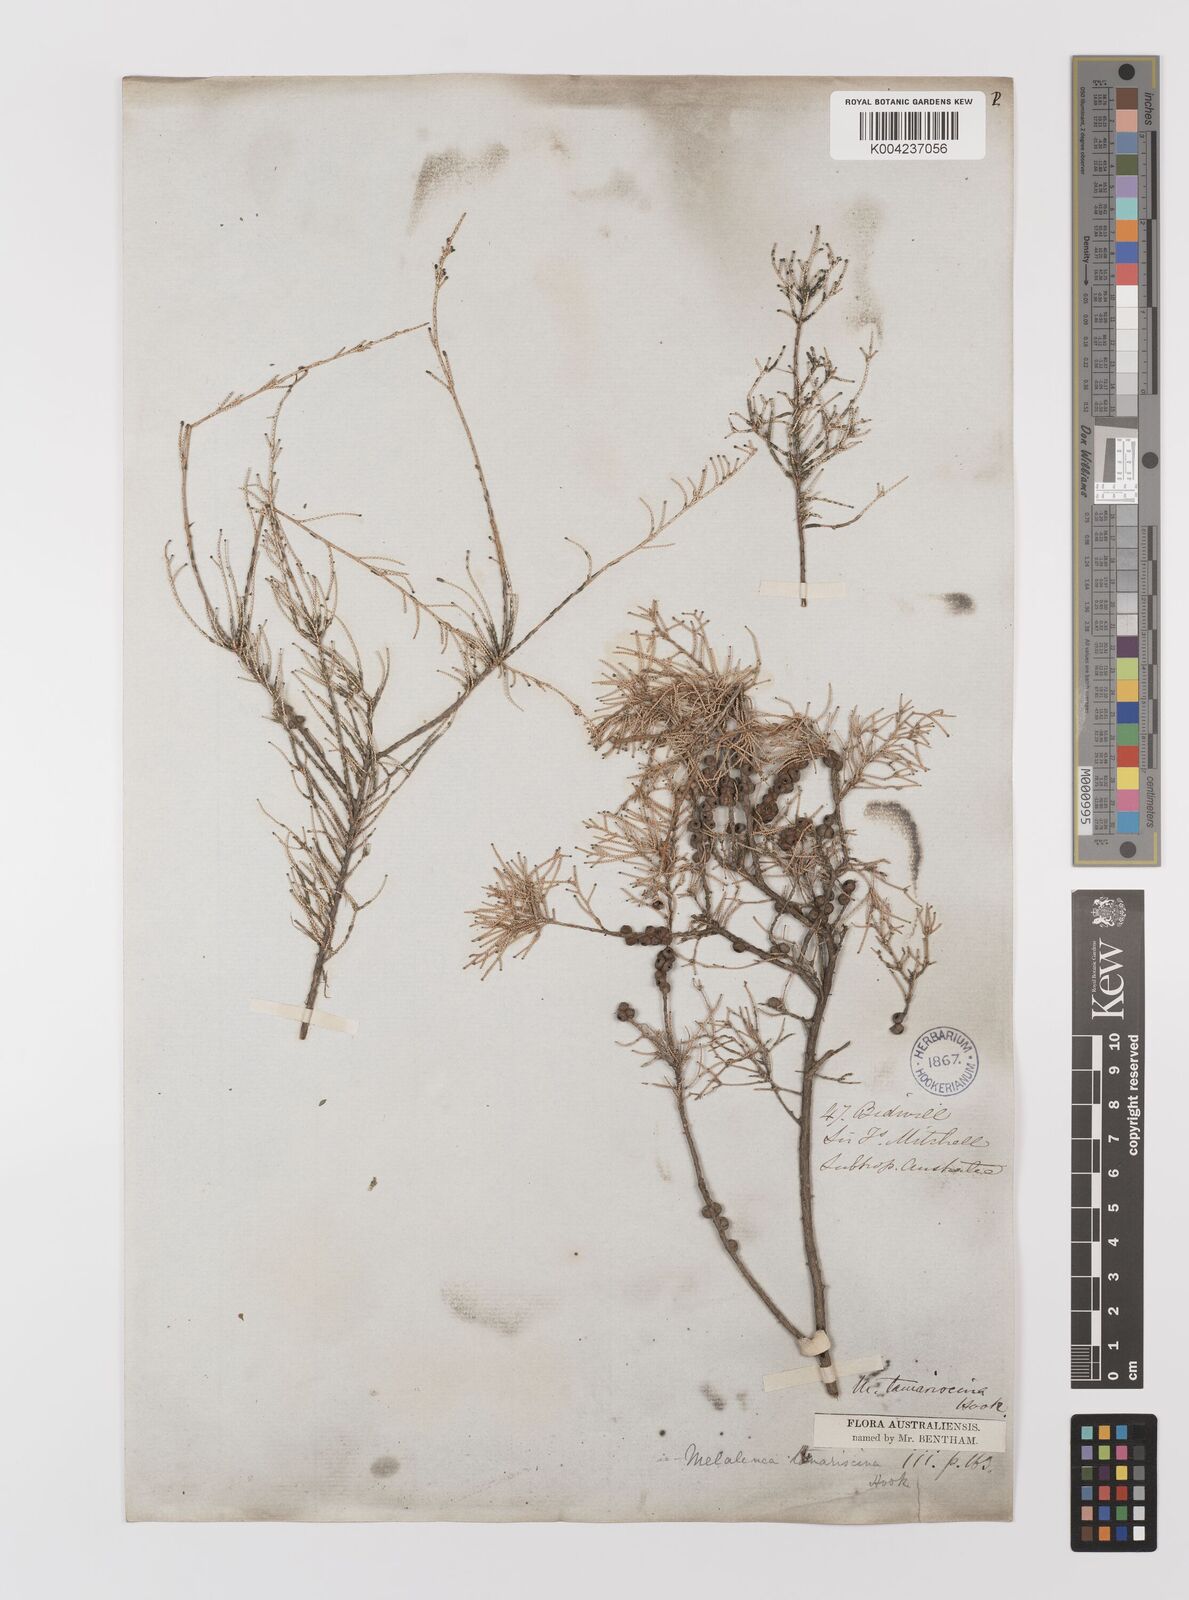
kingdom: Plantae
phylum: Tracheophyta
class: Magnoliopsida
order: Myrtales
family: Myrtaceae
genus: Melaleuca
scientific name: Melaleuca tamariscina
